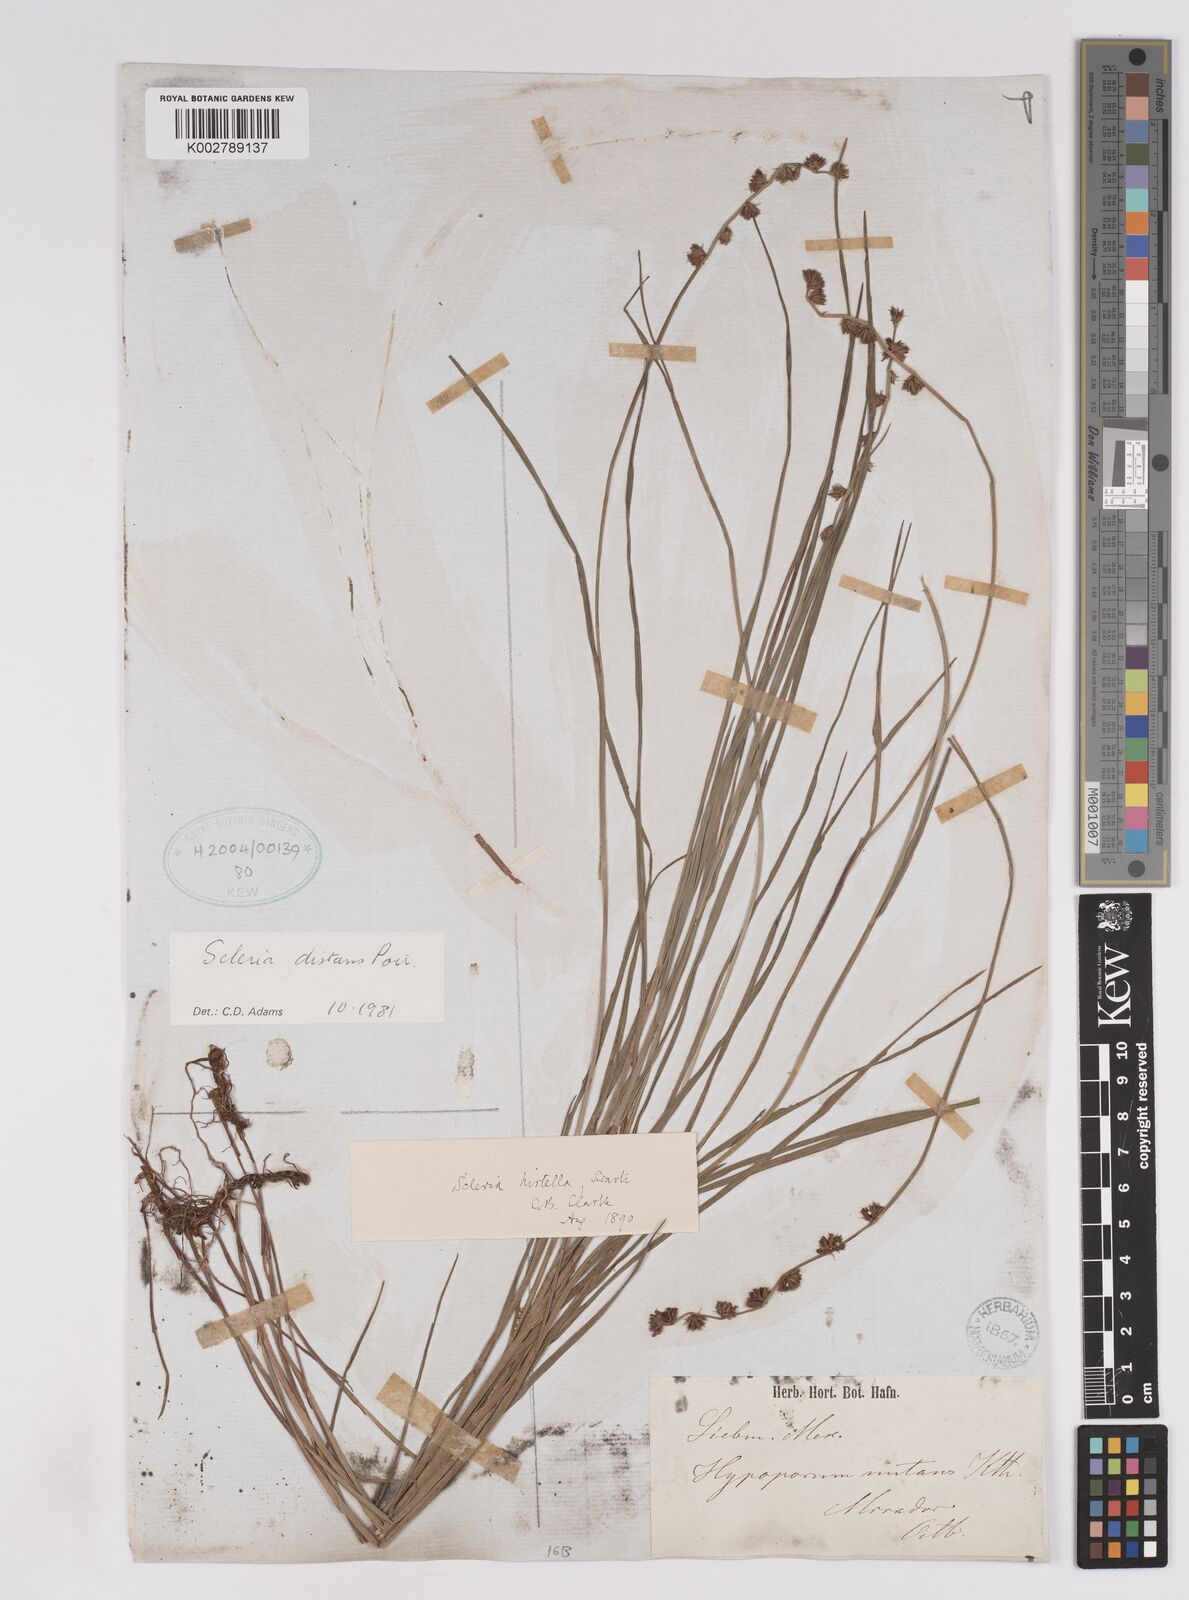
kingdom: Plantae
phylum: Tracheophyta
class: Liliopsida
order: Poales
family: Cyperaceae
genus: Scleria
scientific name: Scleria distans
